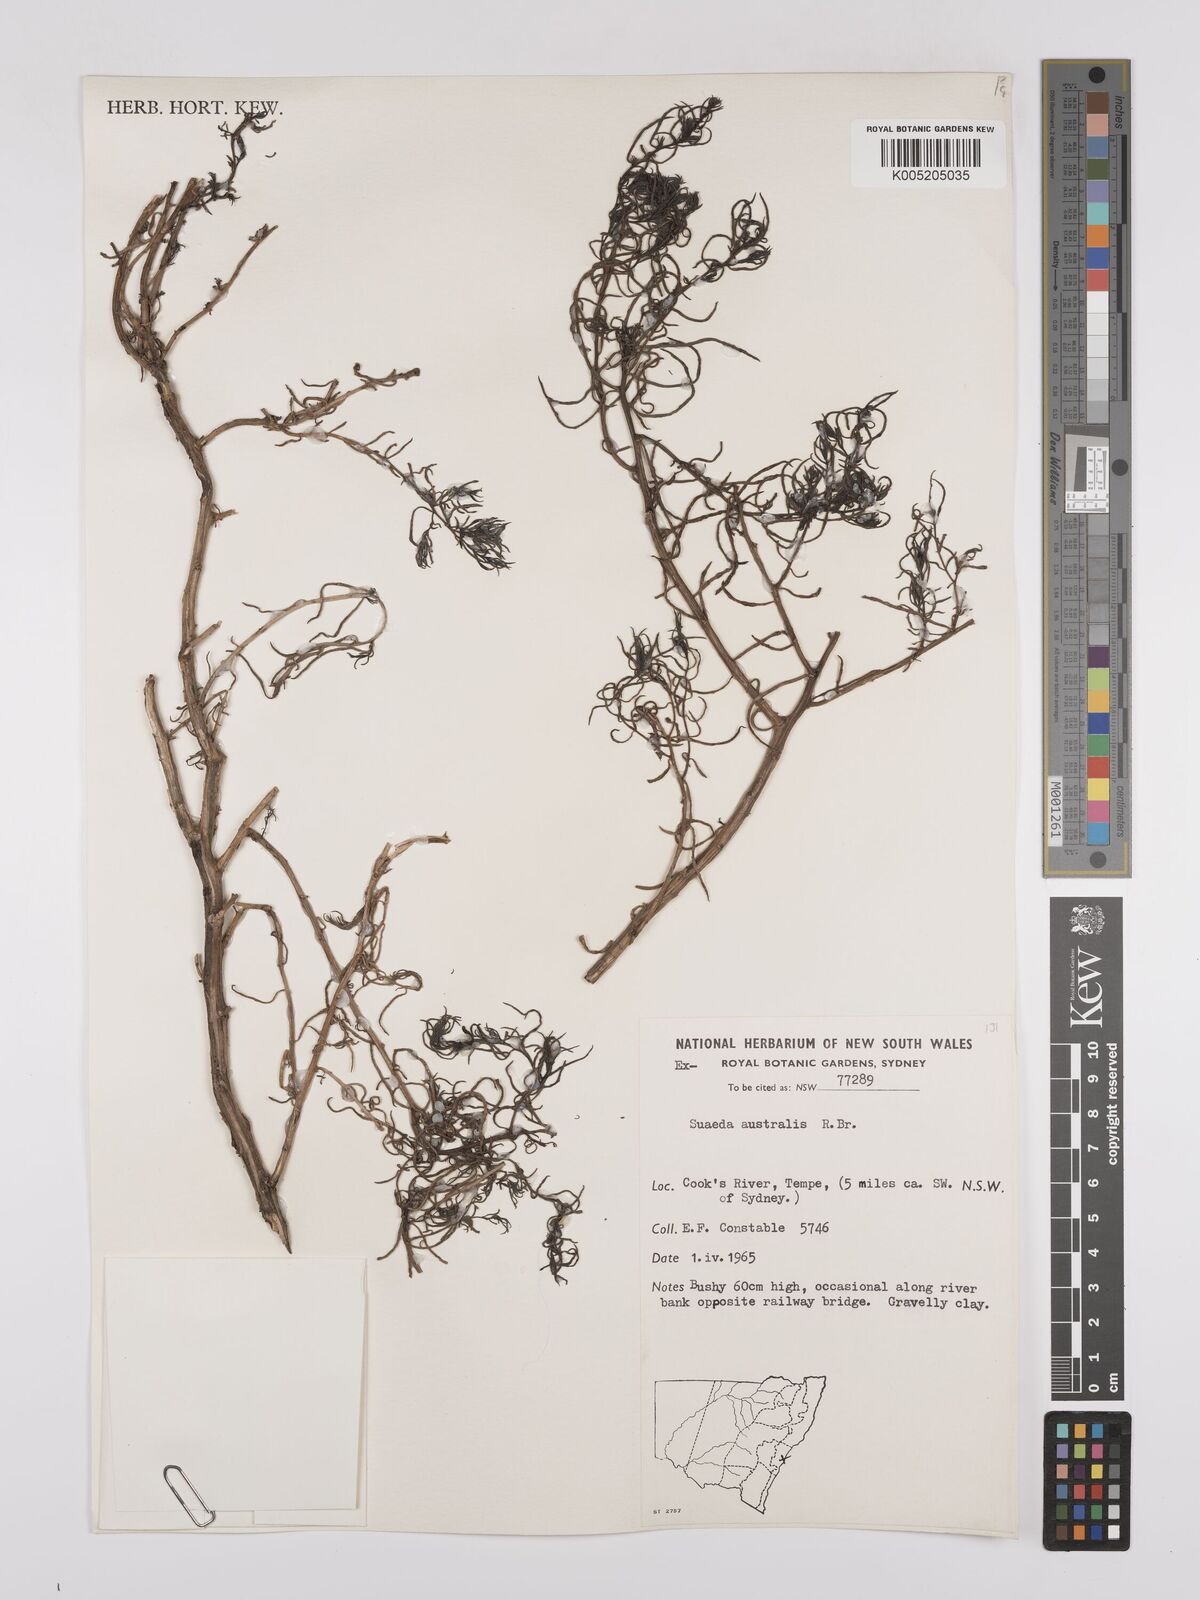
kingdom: Plantae
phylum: Tracheophyta
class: Magnoliopsida
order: Caryophyllales
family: Amaranthaceae
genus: Suaeda
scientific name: Suaeda australis
